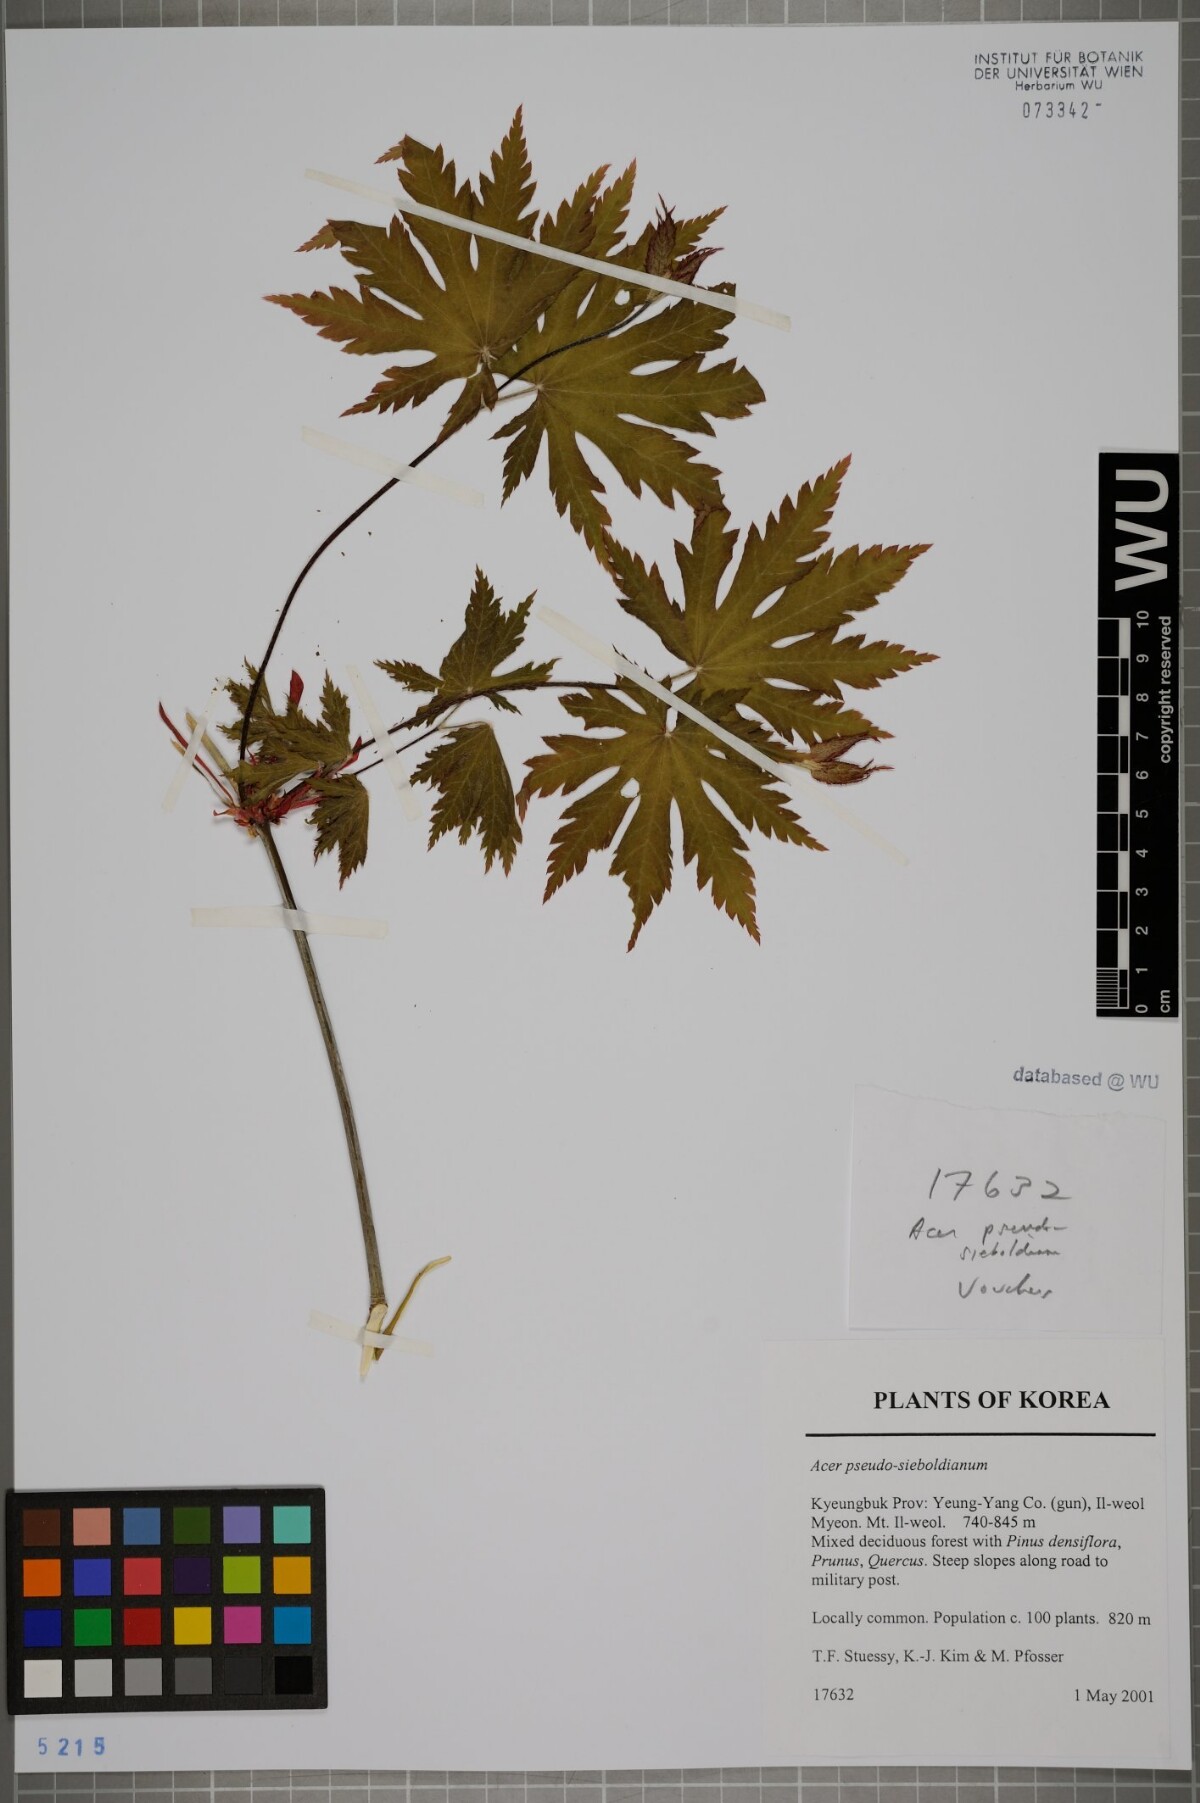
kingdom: Plantae
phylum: Tracheophyta
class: Magnoliopsida
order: Sapindales
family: Sapindaceae
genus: Acer
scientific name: Acer pseudosieboldianum
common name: Korean maple
